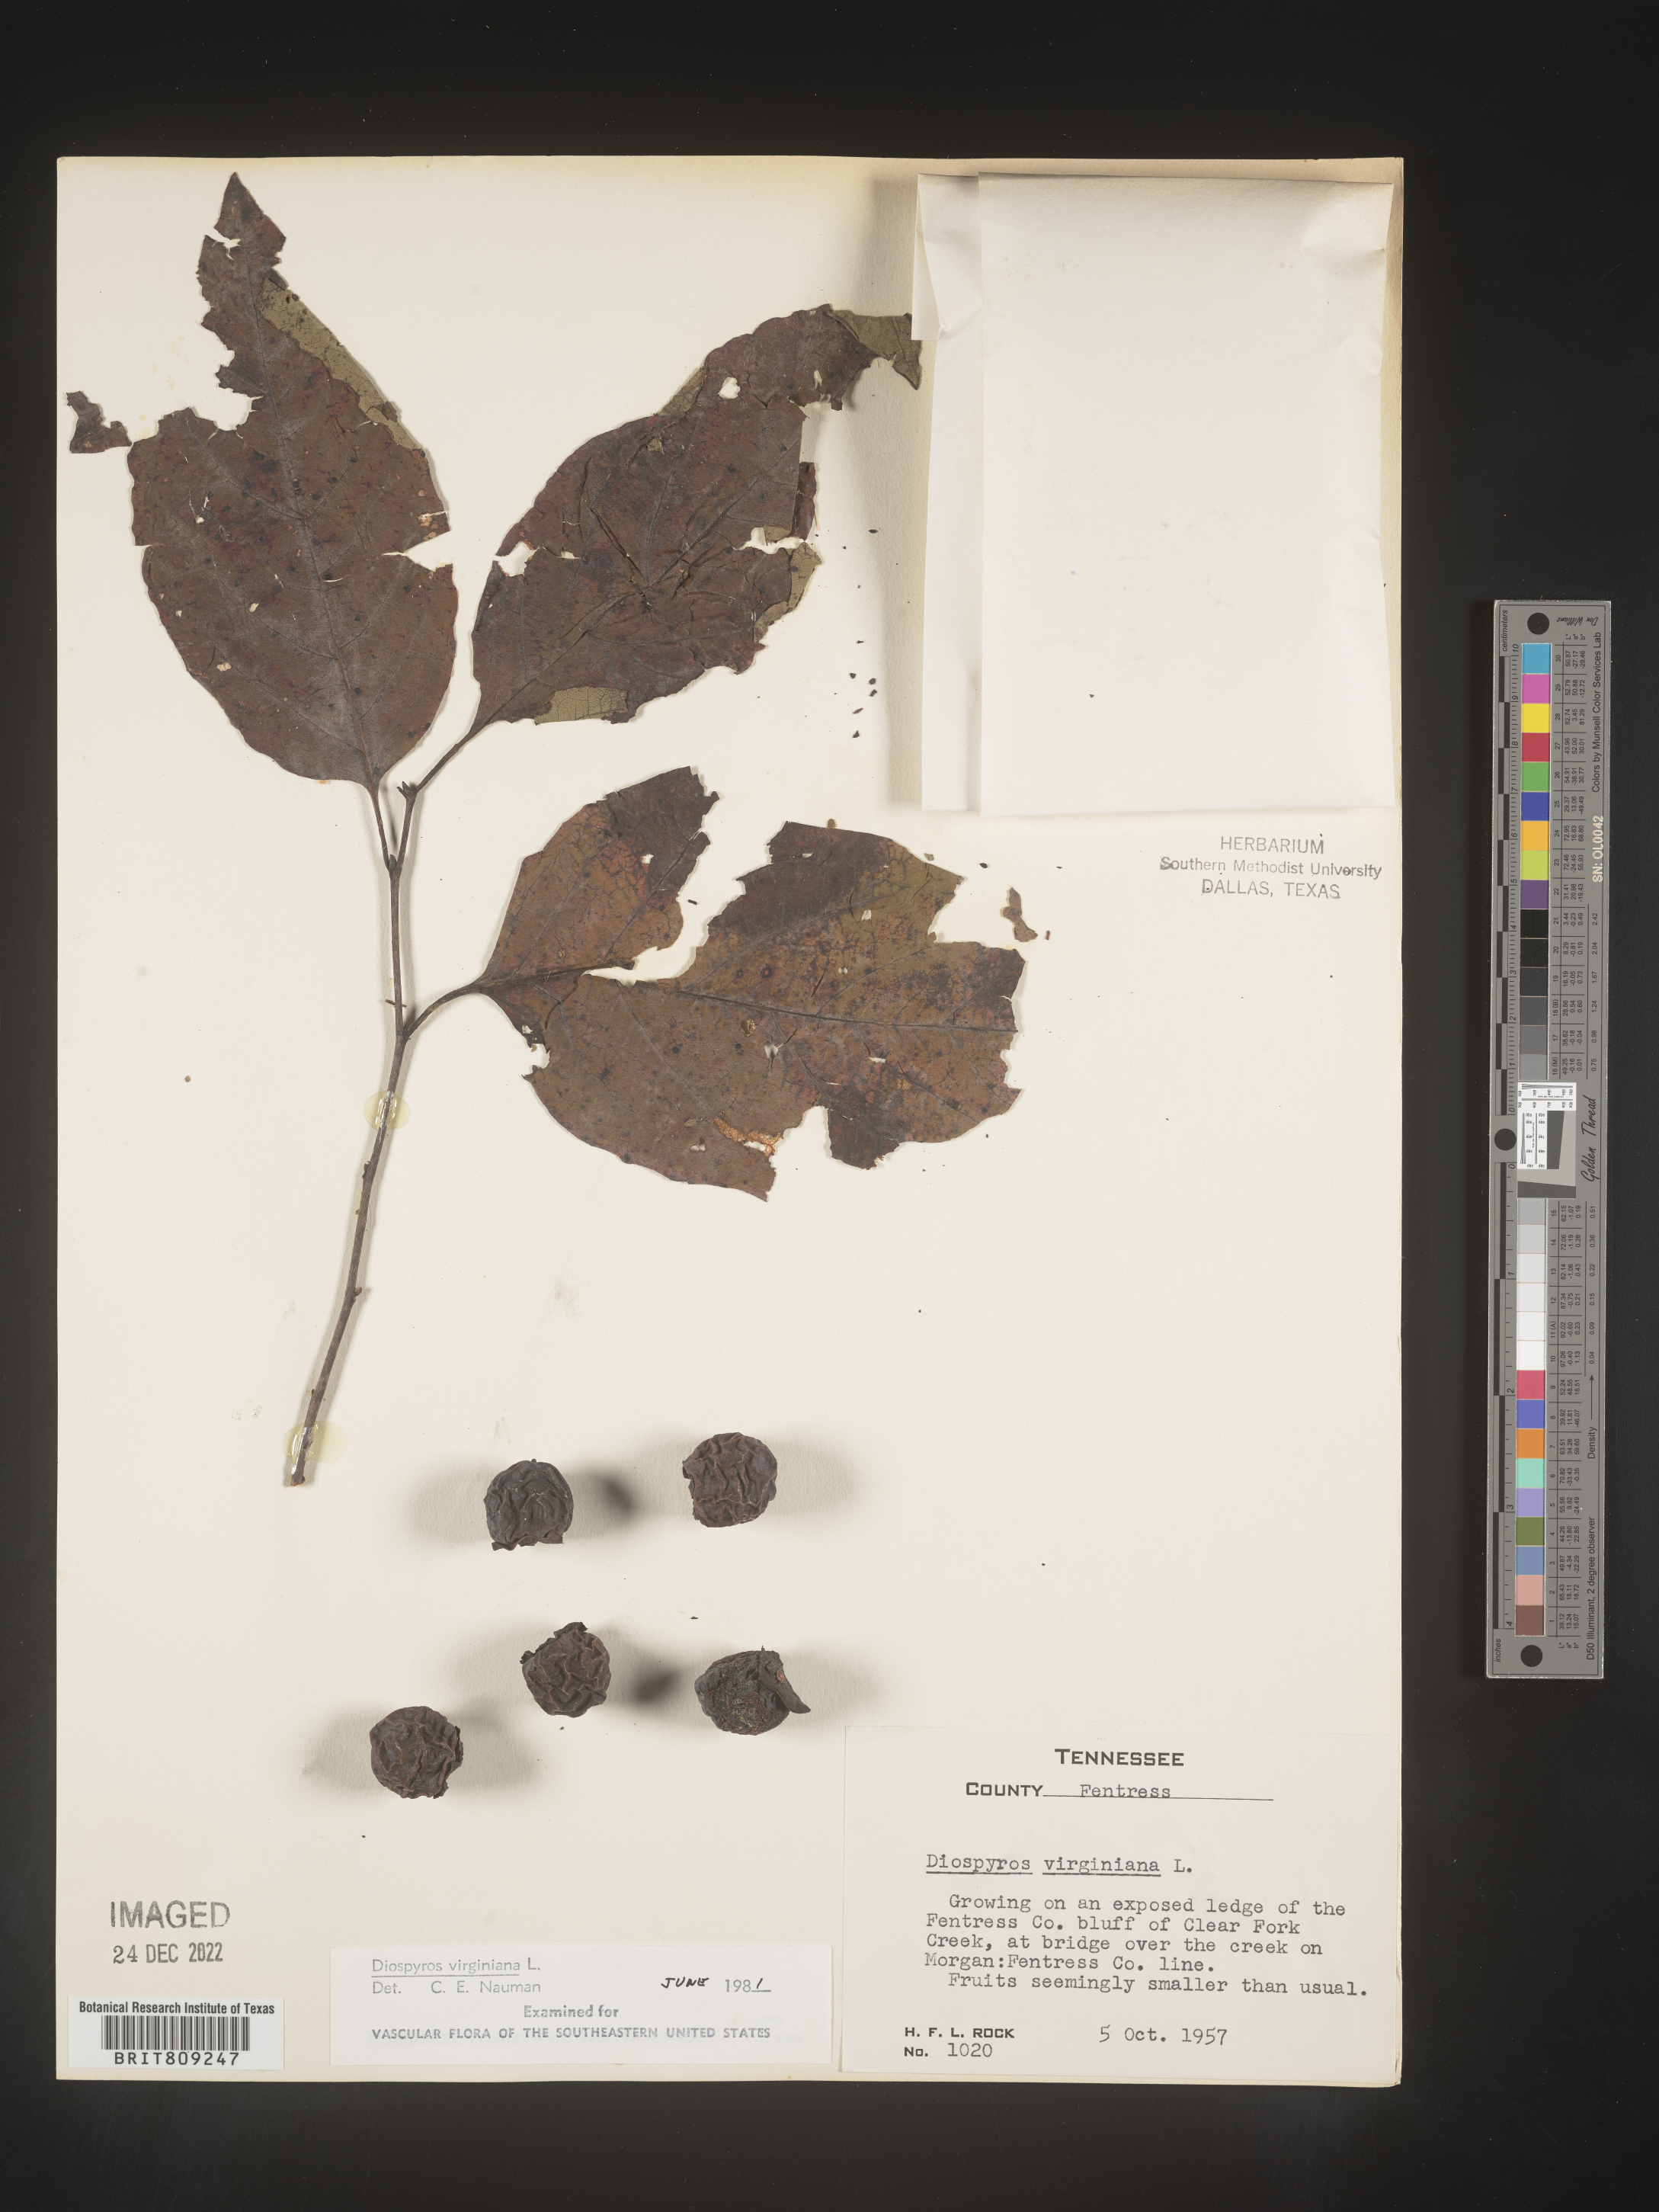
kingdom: Plantae
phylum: Tracheophyta
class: Magnoliopsida
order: Ericales
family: Ebenaceae
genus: Diospyros
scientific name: Diospyros virginiana
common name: Persimmon
